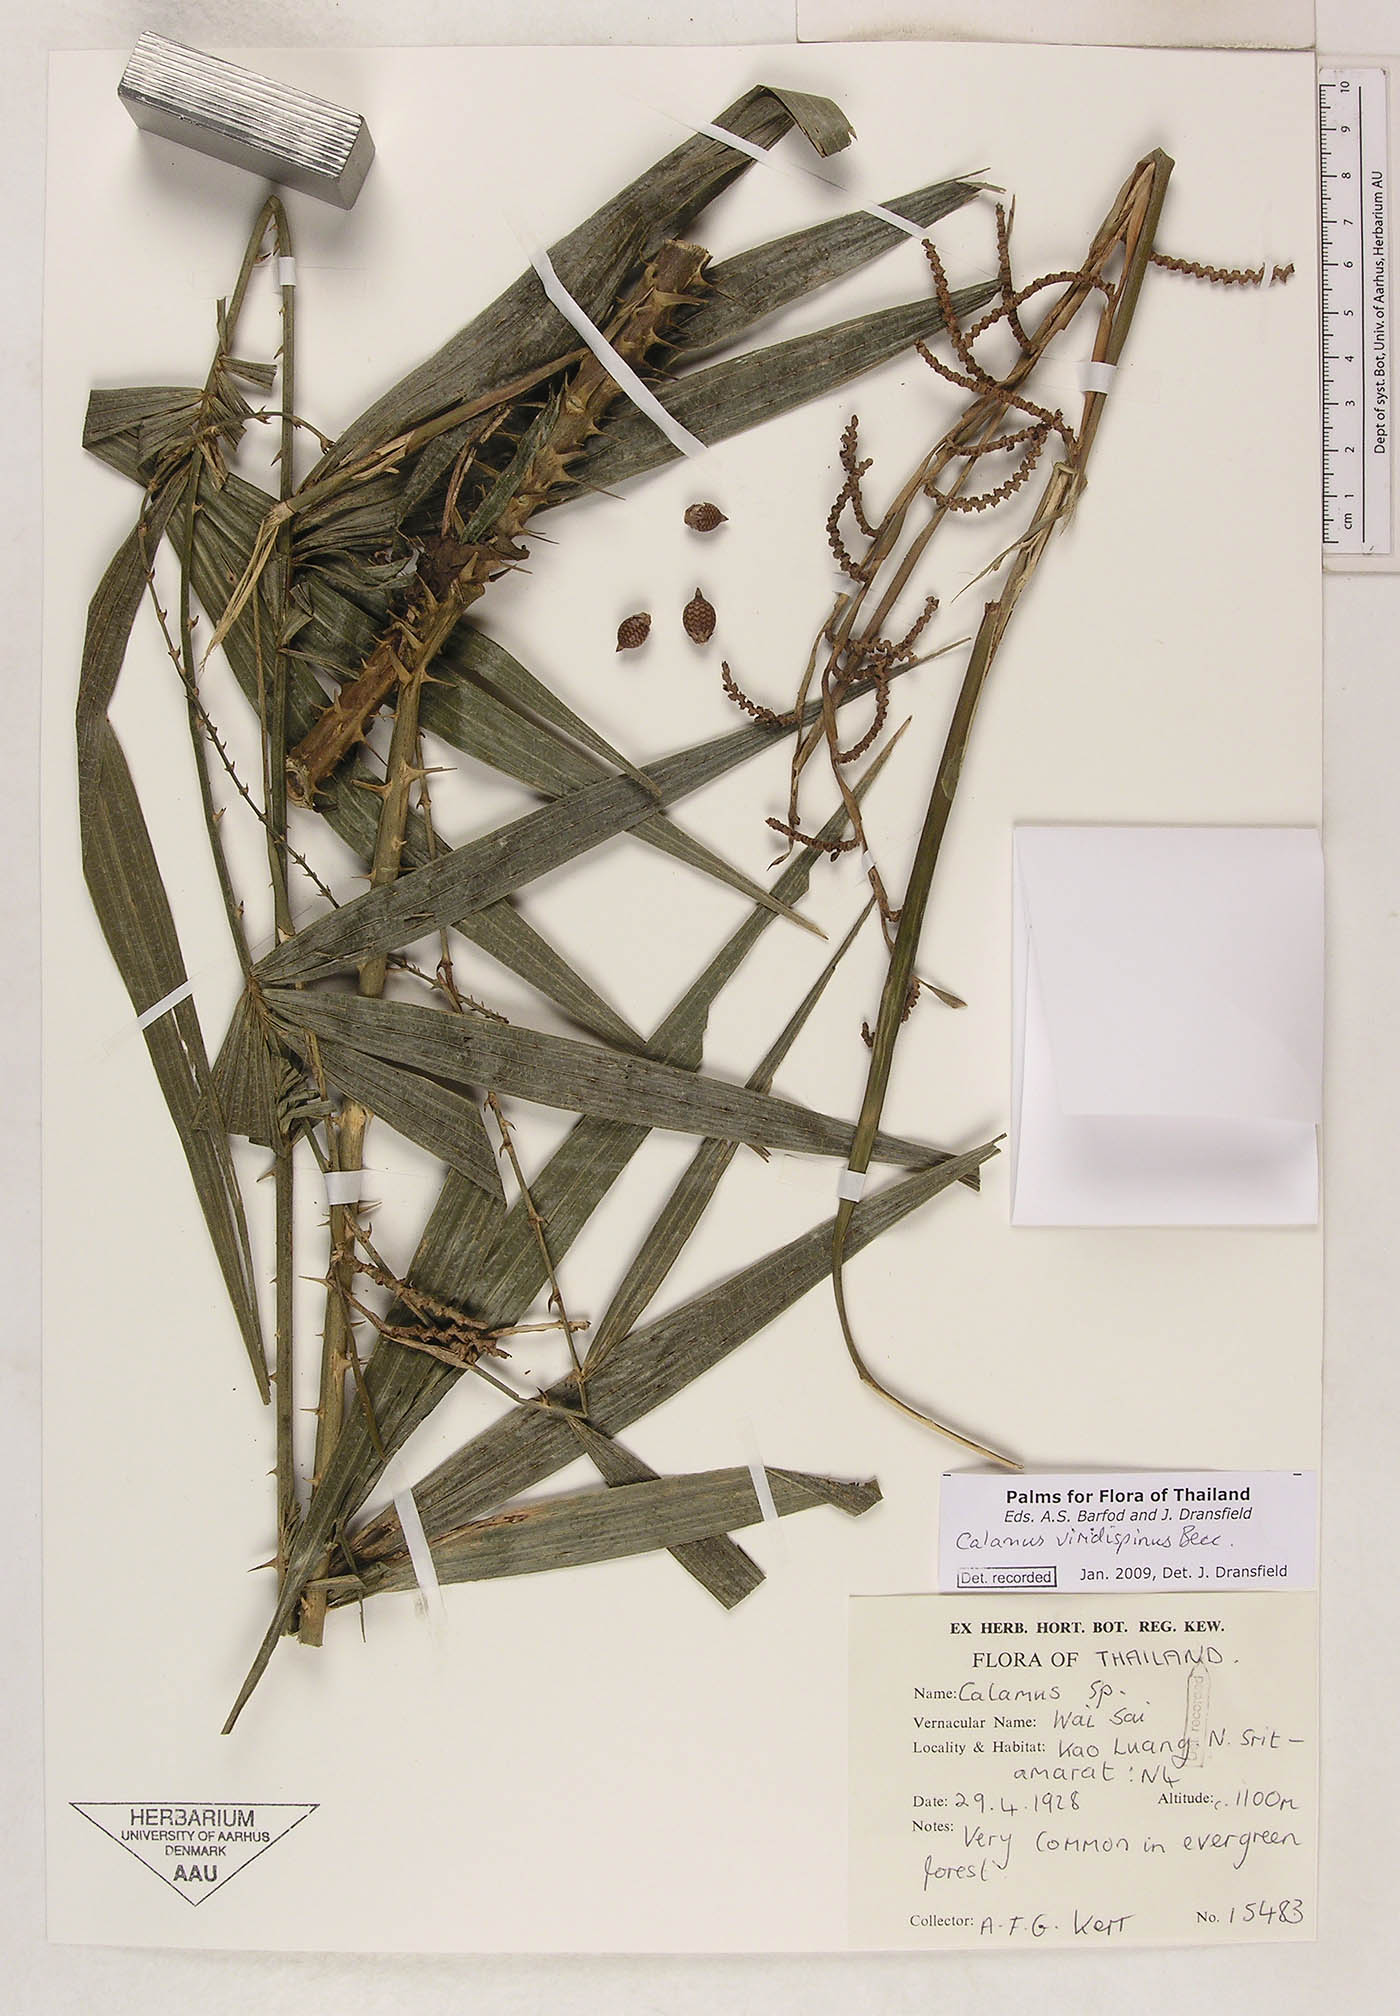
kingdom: Plantae
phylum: Tracheophyta
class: Liliopsida
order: Arecales
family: Arecaceae
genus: Calamus
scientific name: Calamus helferianus
